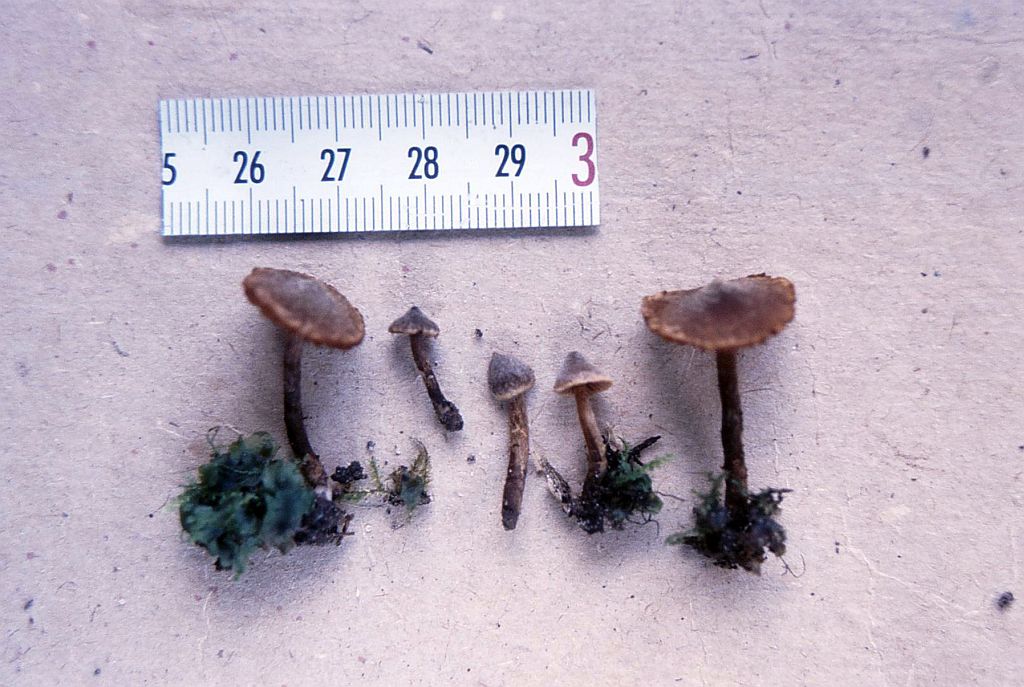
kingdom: Fungi
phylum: Basidiomycota
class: Agaricomycetes
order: Agaricales
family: Cortinariaceae
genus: Cortinarius
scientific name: Cortinarius comatus
